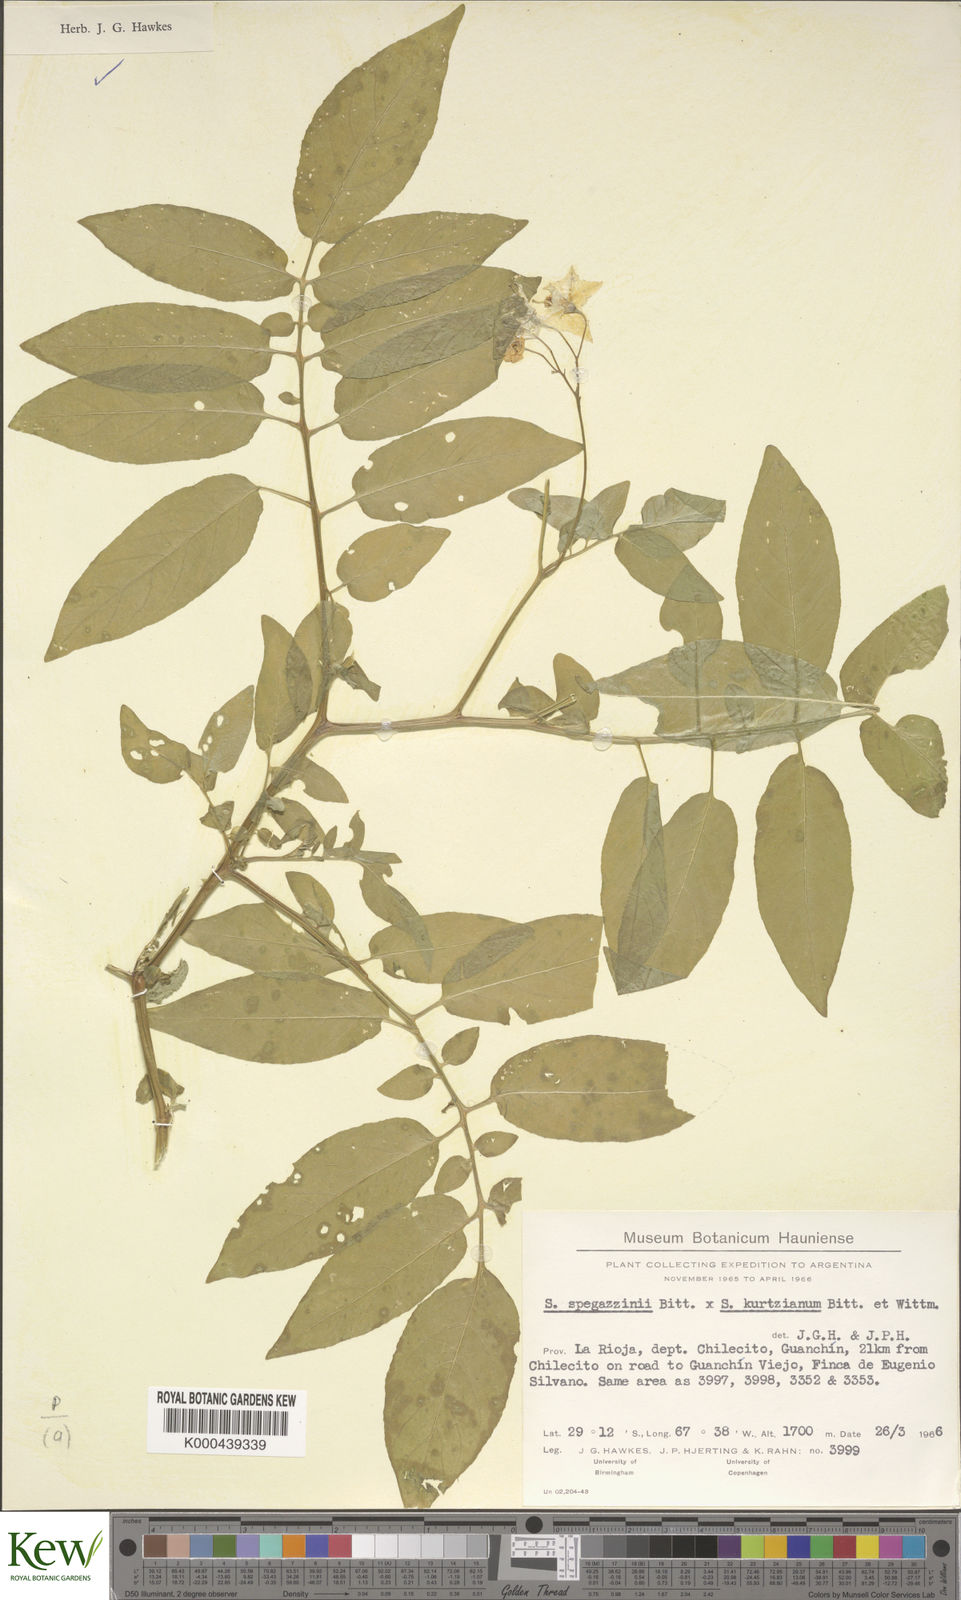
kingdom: Plantae
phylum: Tracheophyta
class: Magnoliopsida
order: Solanales
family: Solanaceae
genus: Solanum
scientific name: Solanum brevicaule
